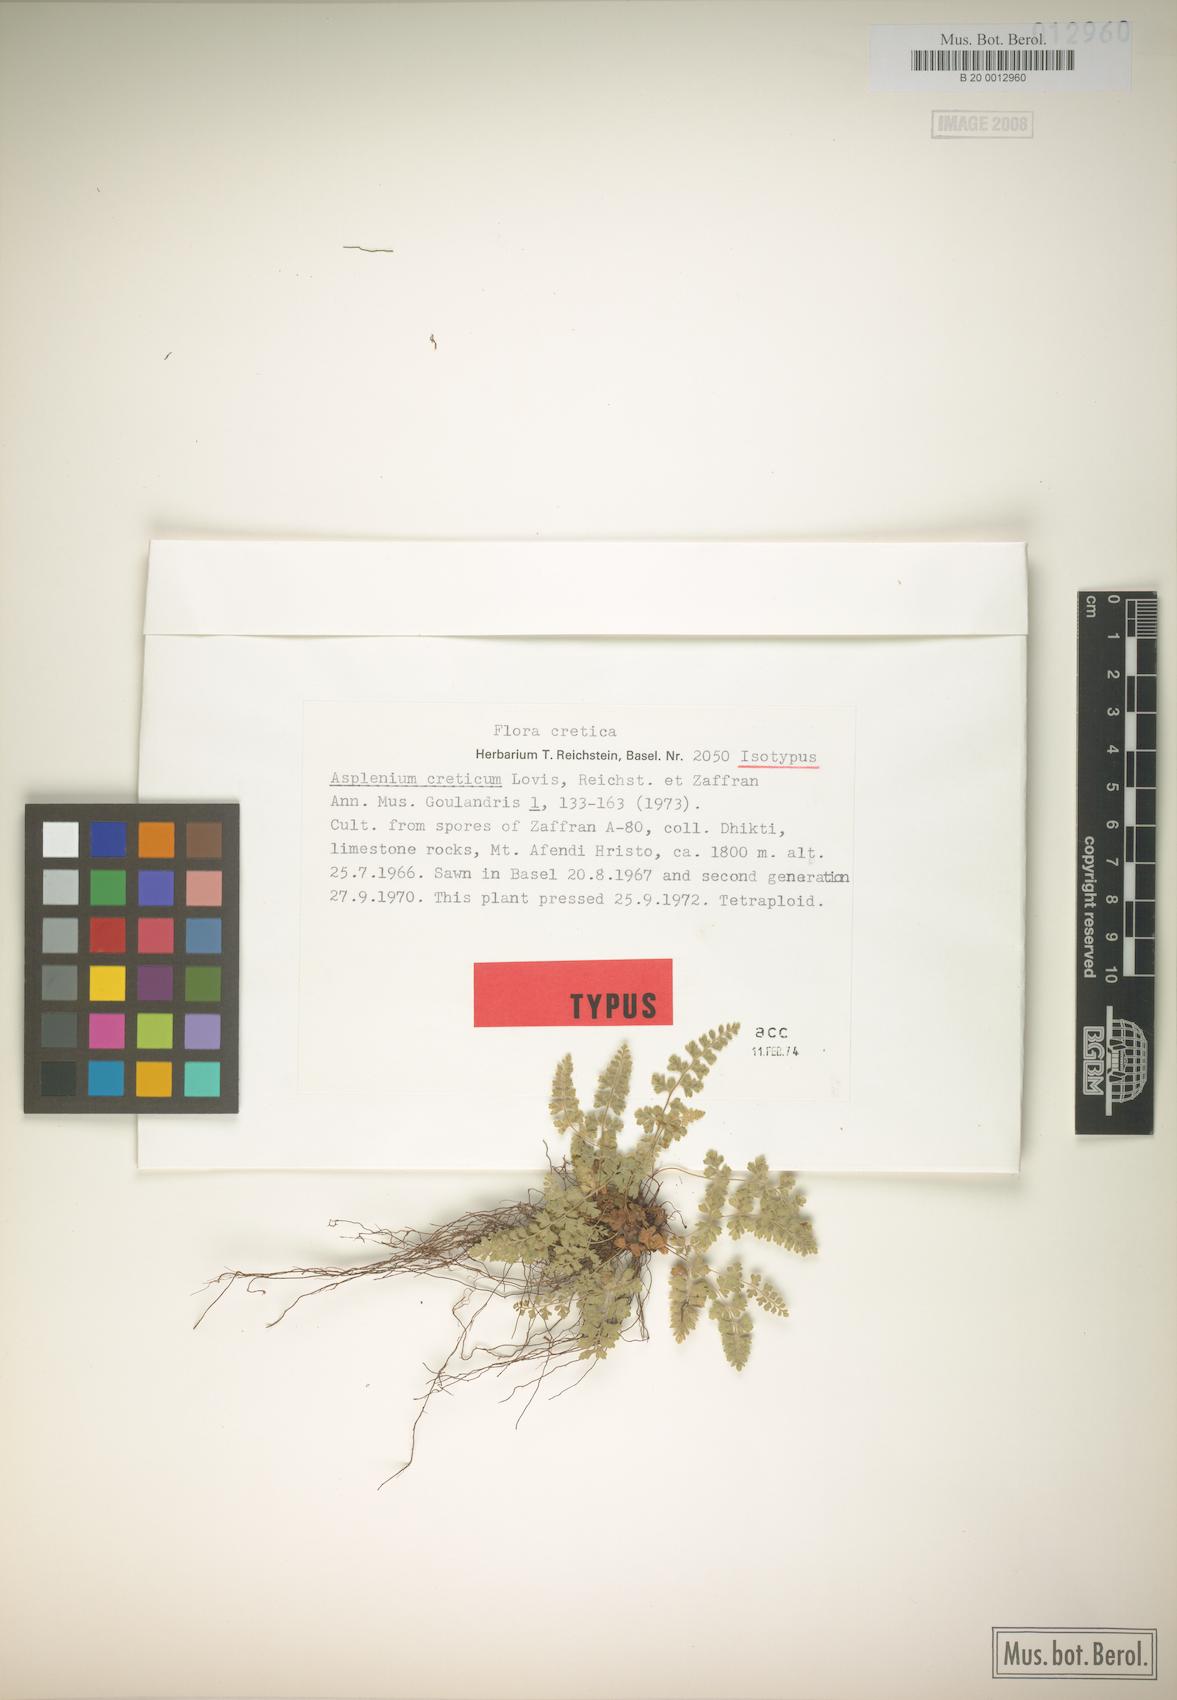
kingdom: Plantae
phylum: Tracheophyta
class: Polypodiopsida
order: Polypodiales
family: Aspleniaceae
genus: Asplenium
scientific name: Asplenium creticum
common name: Cretan spleenwort
